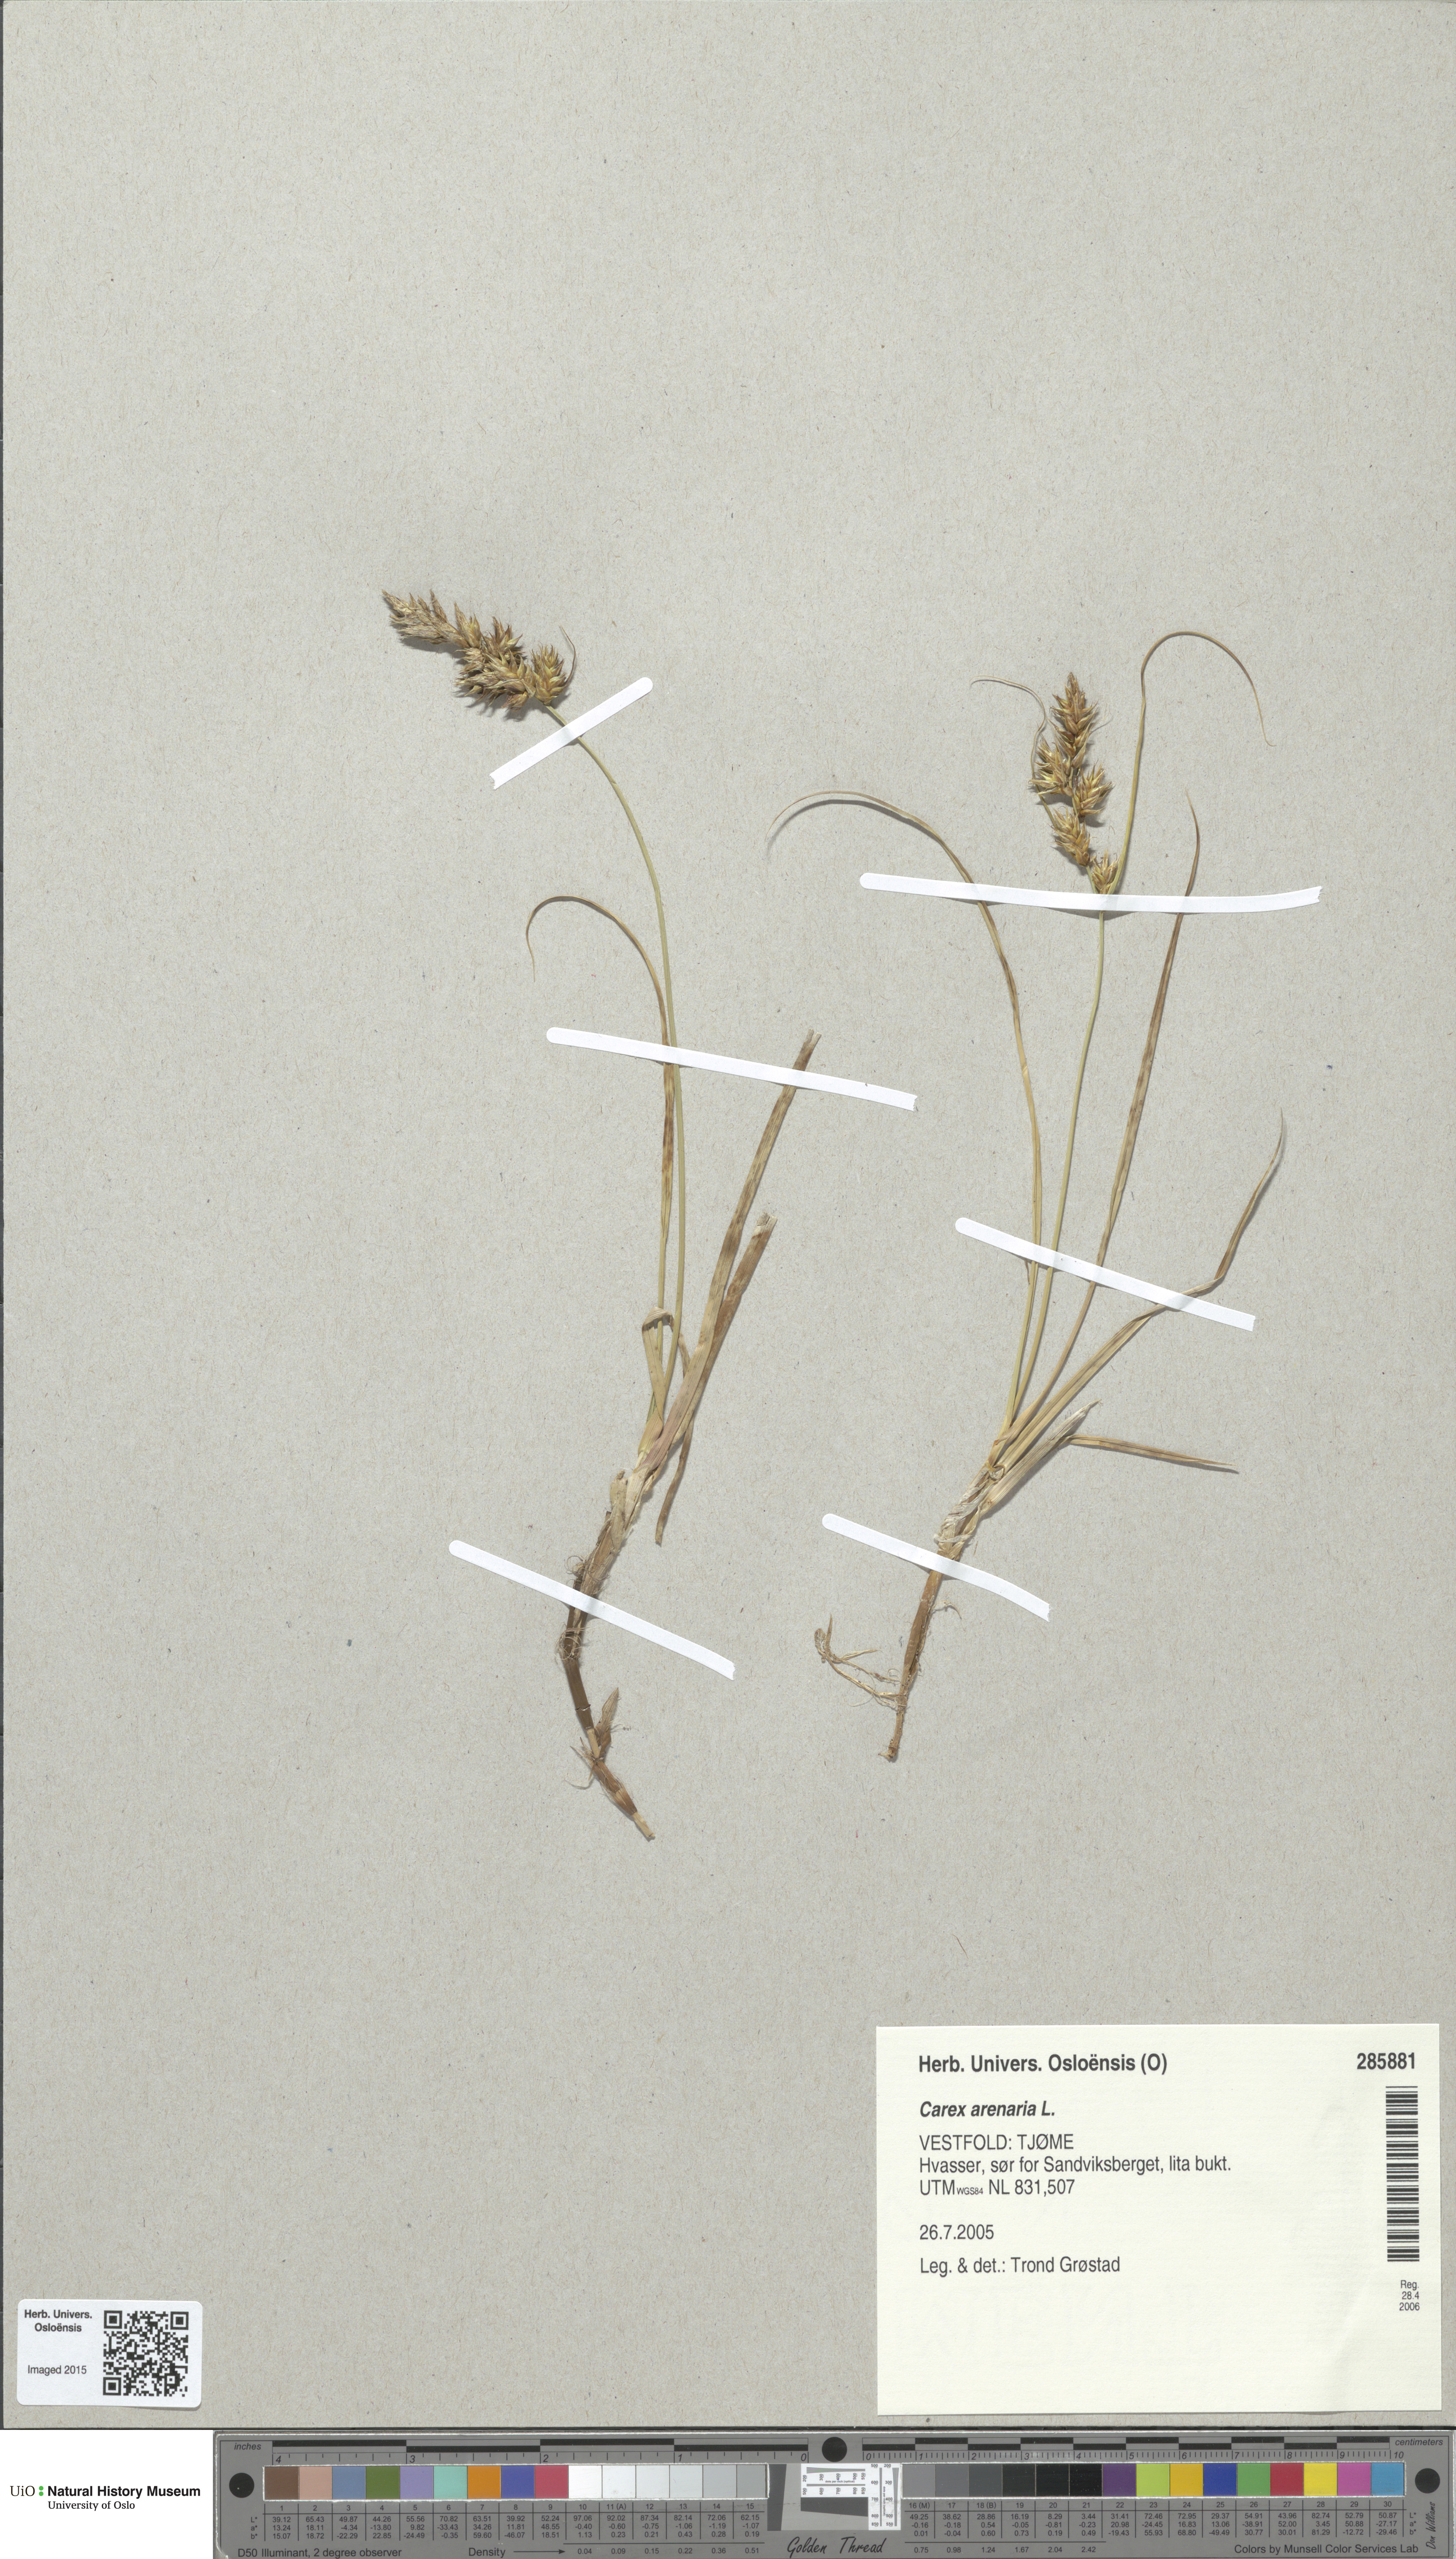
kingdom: Plantae
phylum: Tracheophyta
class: Liliopsida
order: Poales
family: Cyperaceae
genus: Carex
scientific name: Carex arenaria
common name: Sand sedge
